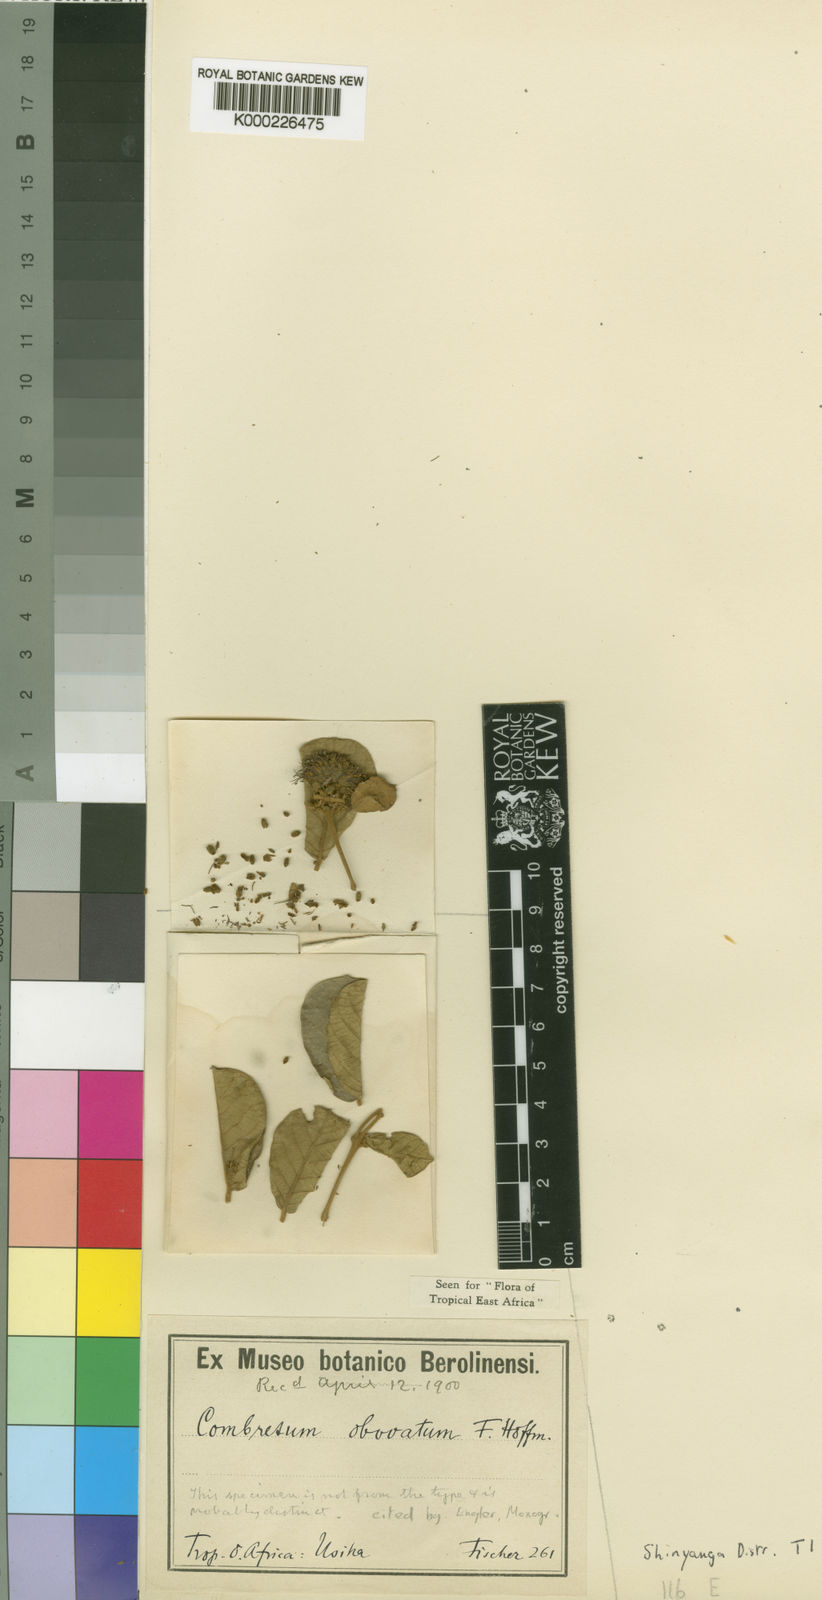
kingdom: Plantae
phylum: Tracheophyta
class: Magnoliopsida
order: Myrtales
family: Combretaceae
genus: Combretum
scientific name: Combretum obovatum
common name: Spiny combretum
